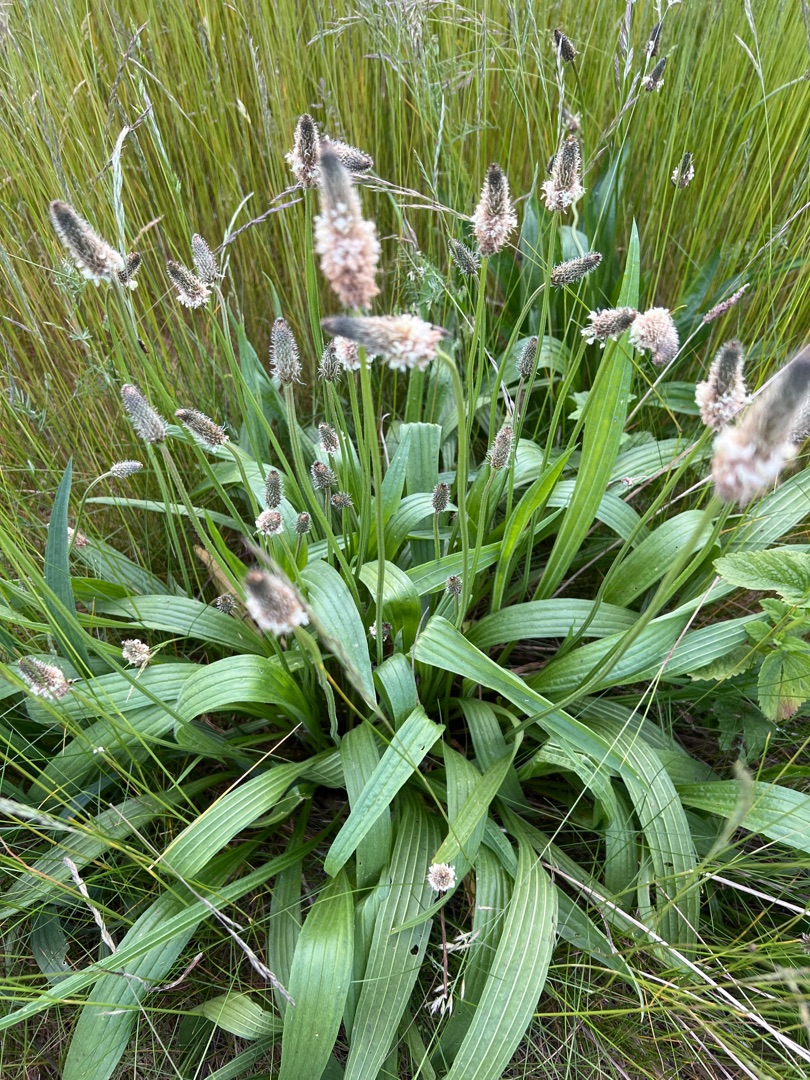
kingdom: Plantae
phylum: Tracheophyta
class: Magnoliopsida
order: Lamiales
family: Plantaginaceae
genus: Plantago
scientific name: Plantago lanceolata
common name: Lancet-vejbred
